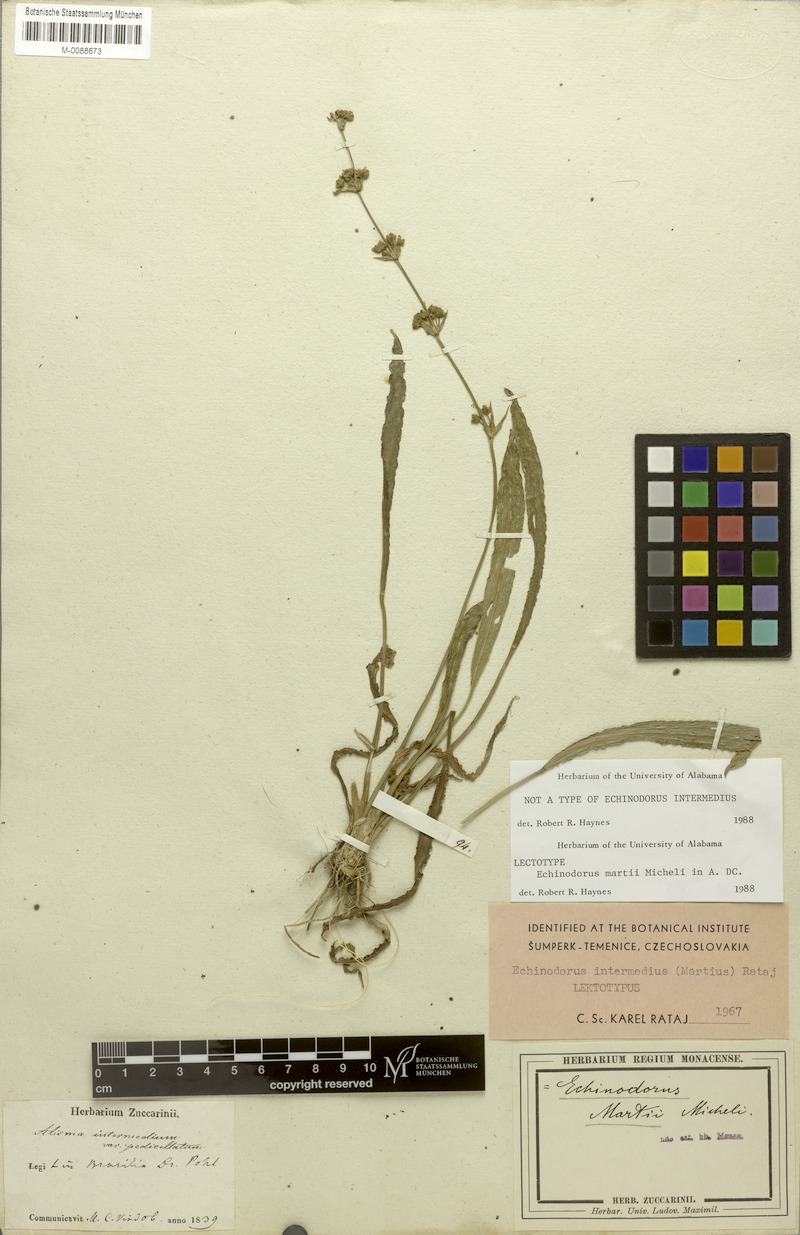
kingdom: Plantae
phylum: Tracheophyta
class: Liliopsida
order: Alismatales
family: Alismataceae
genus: Aquarius
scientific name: Aquarius subulatus
